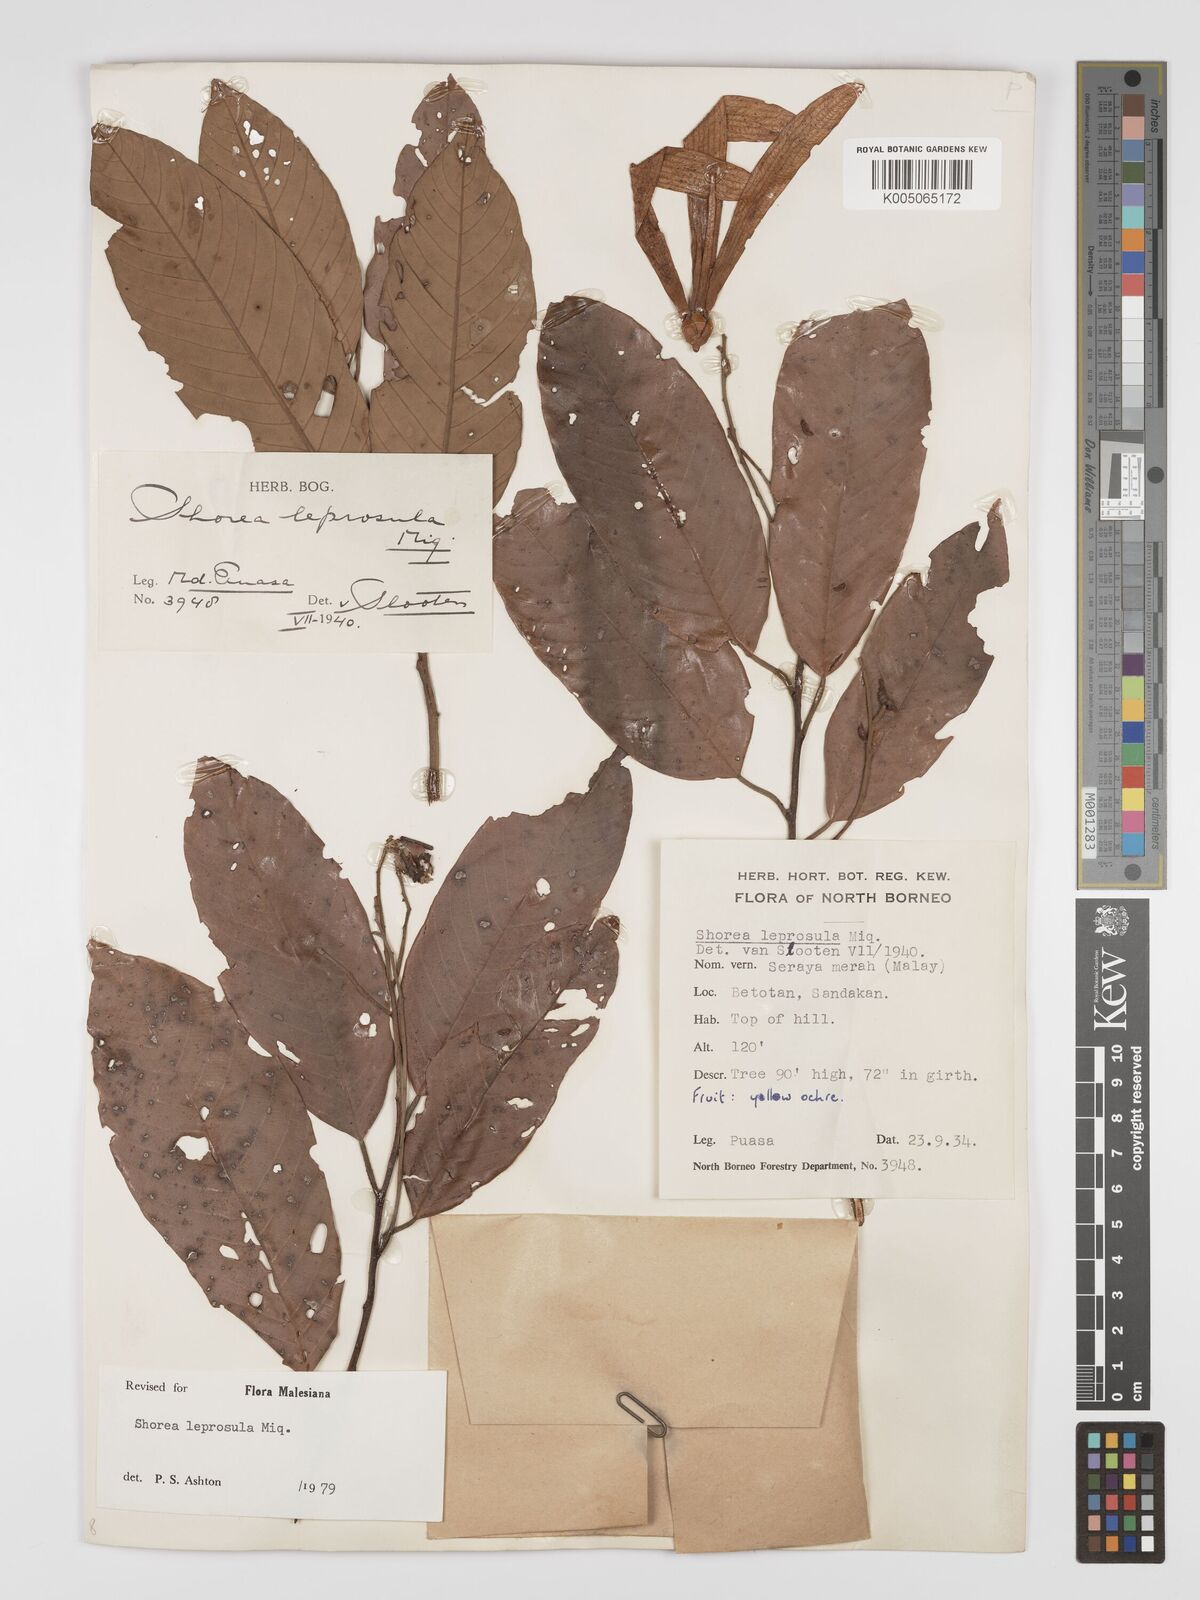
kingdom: Plantae
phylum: Tracheophyta
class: Magnoliopsida
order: Malvales
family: Dipterocarpaceae
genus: Shorea
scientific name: Shorea leprosula
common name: Light red meranti
